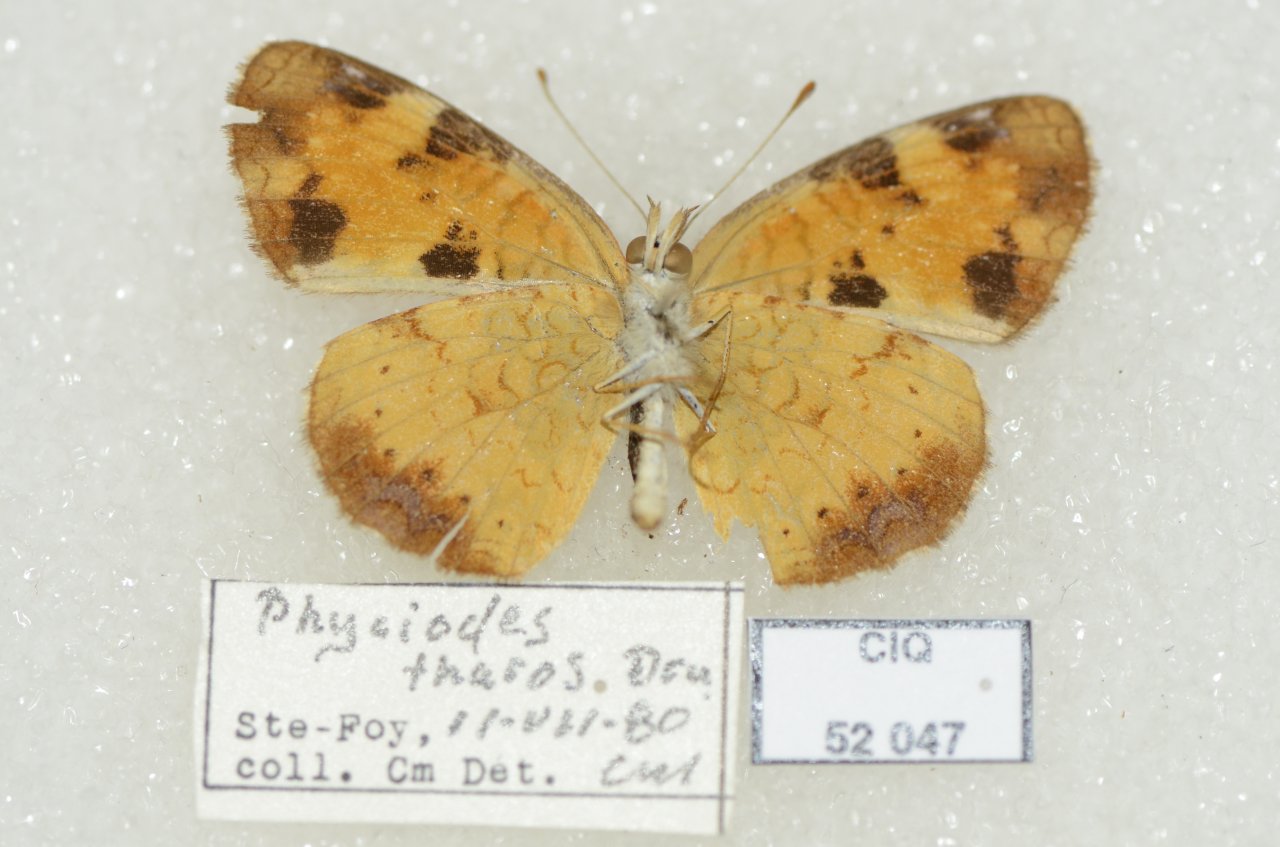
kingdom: Animalia
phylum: Arthropoda
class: Insecta
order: Lepidoptera
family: Nymphalidae
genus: Phyciodes
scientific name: Phyciodes tharos
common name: Northern Crescent
